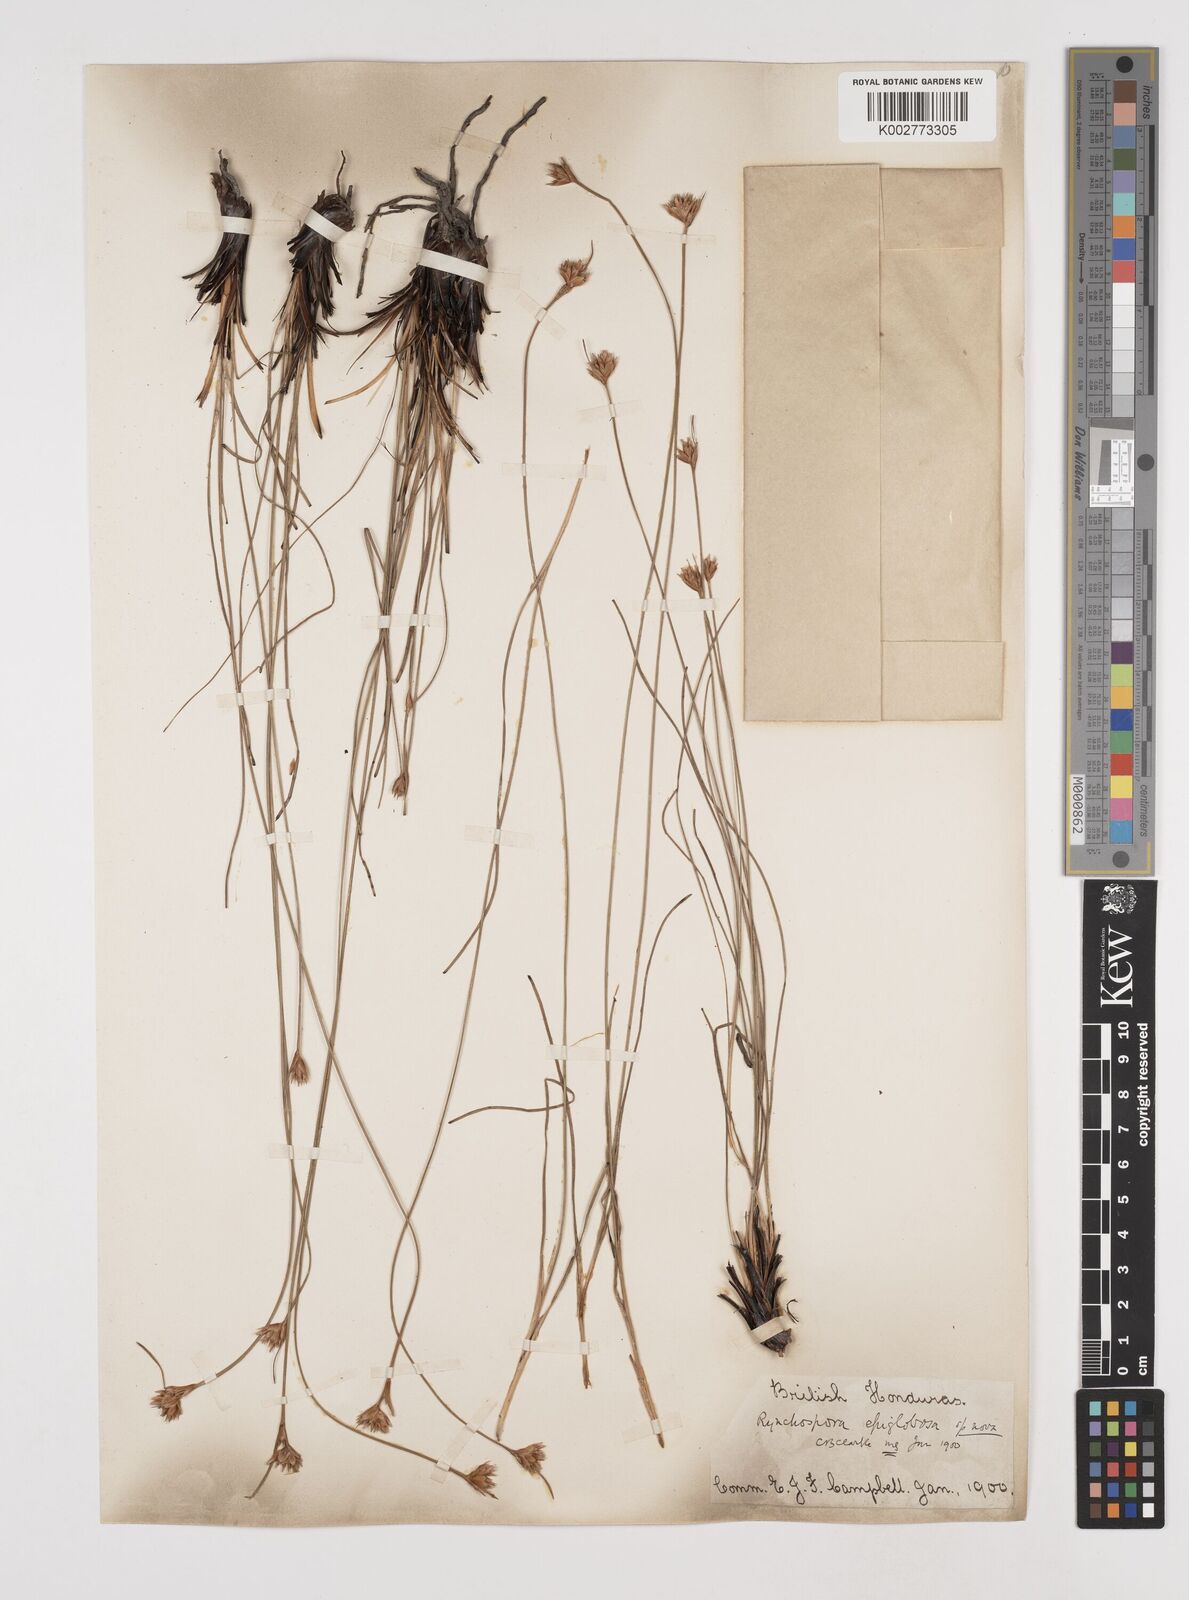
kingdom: Plantae
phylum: Tracheophyta
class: Liliopsida
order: Poales
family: Cyperaceae
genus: Rhynchospora
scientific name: Rhynchospora globosa
